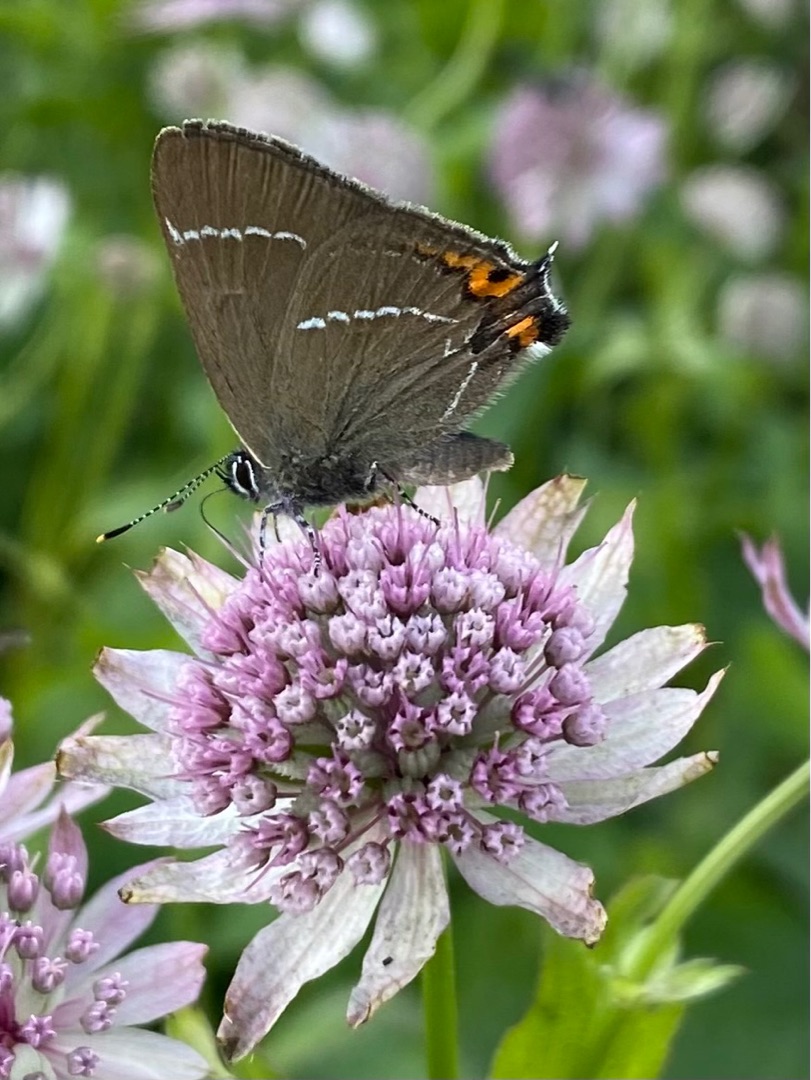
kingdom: Animalia
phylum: Arthropoda
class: Insecta
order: Lepidoptera
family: Lycaenidae
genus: Satyrium
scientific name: Satyrium w-album
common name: Det hvide W
